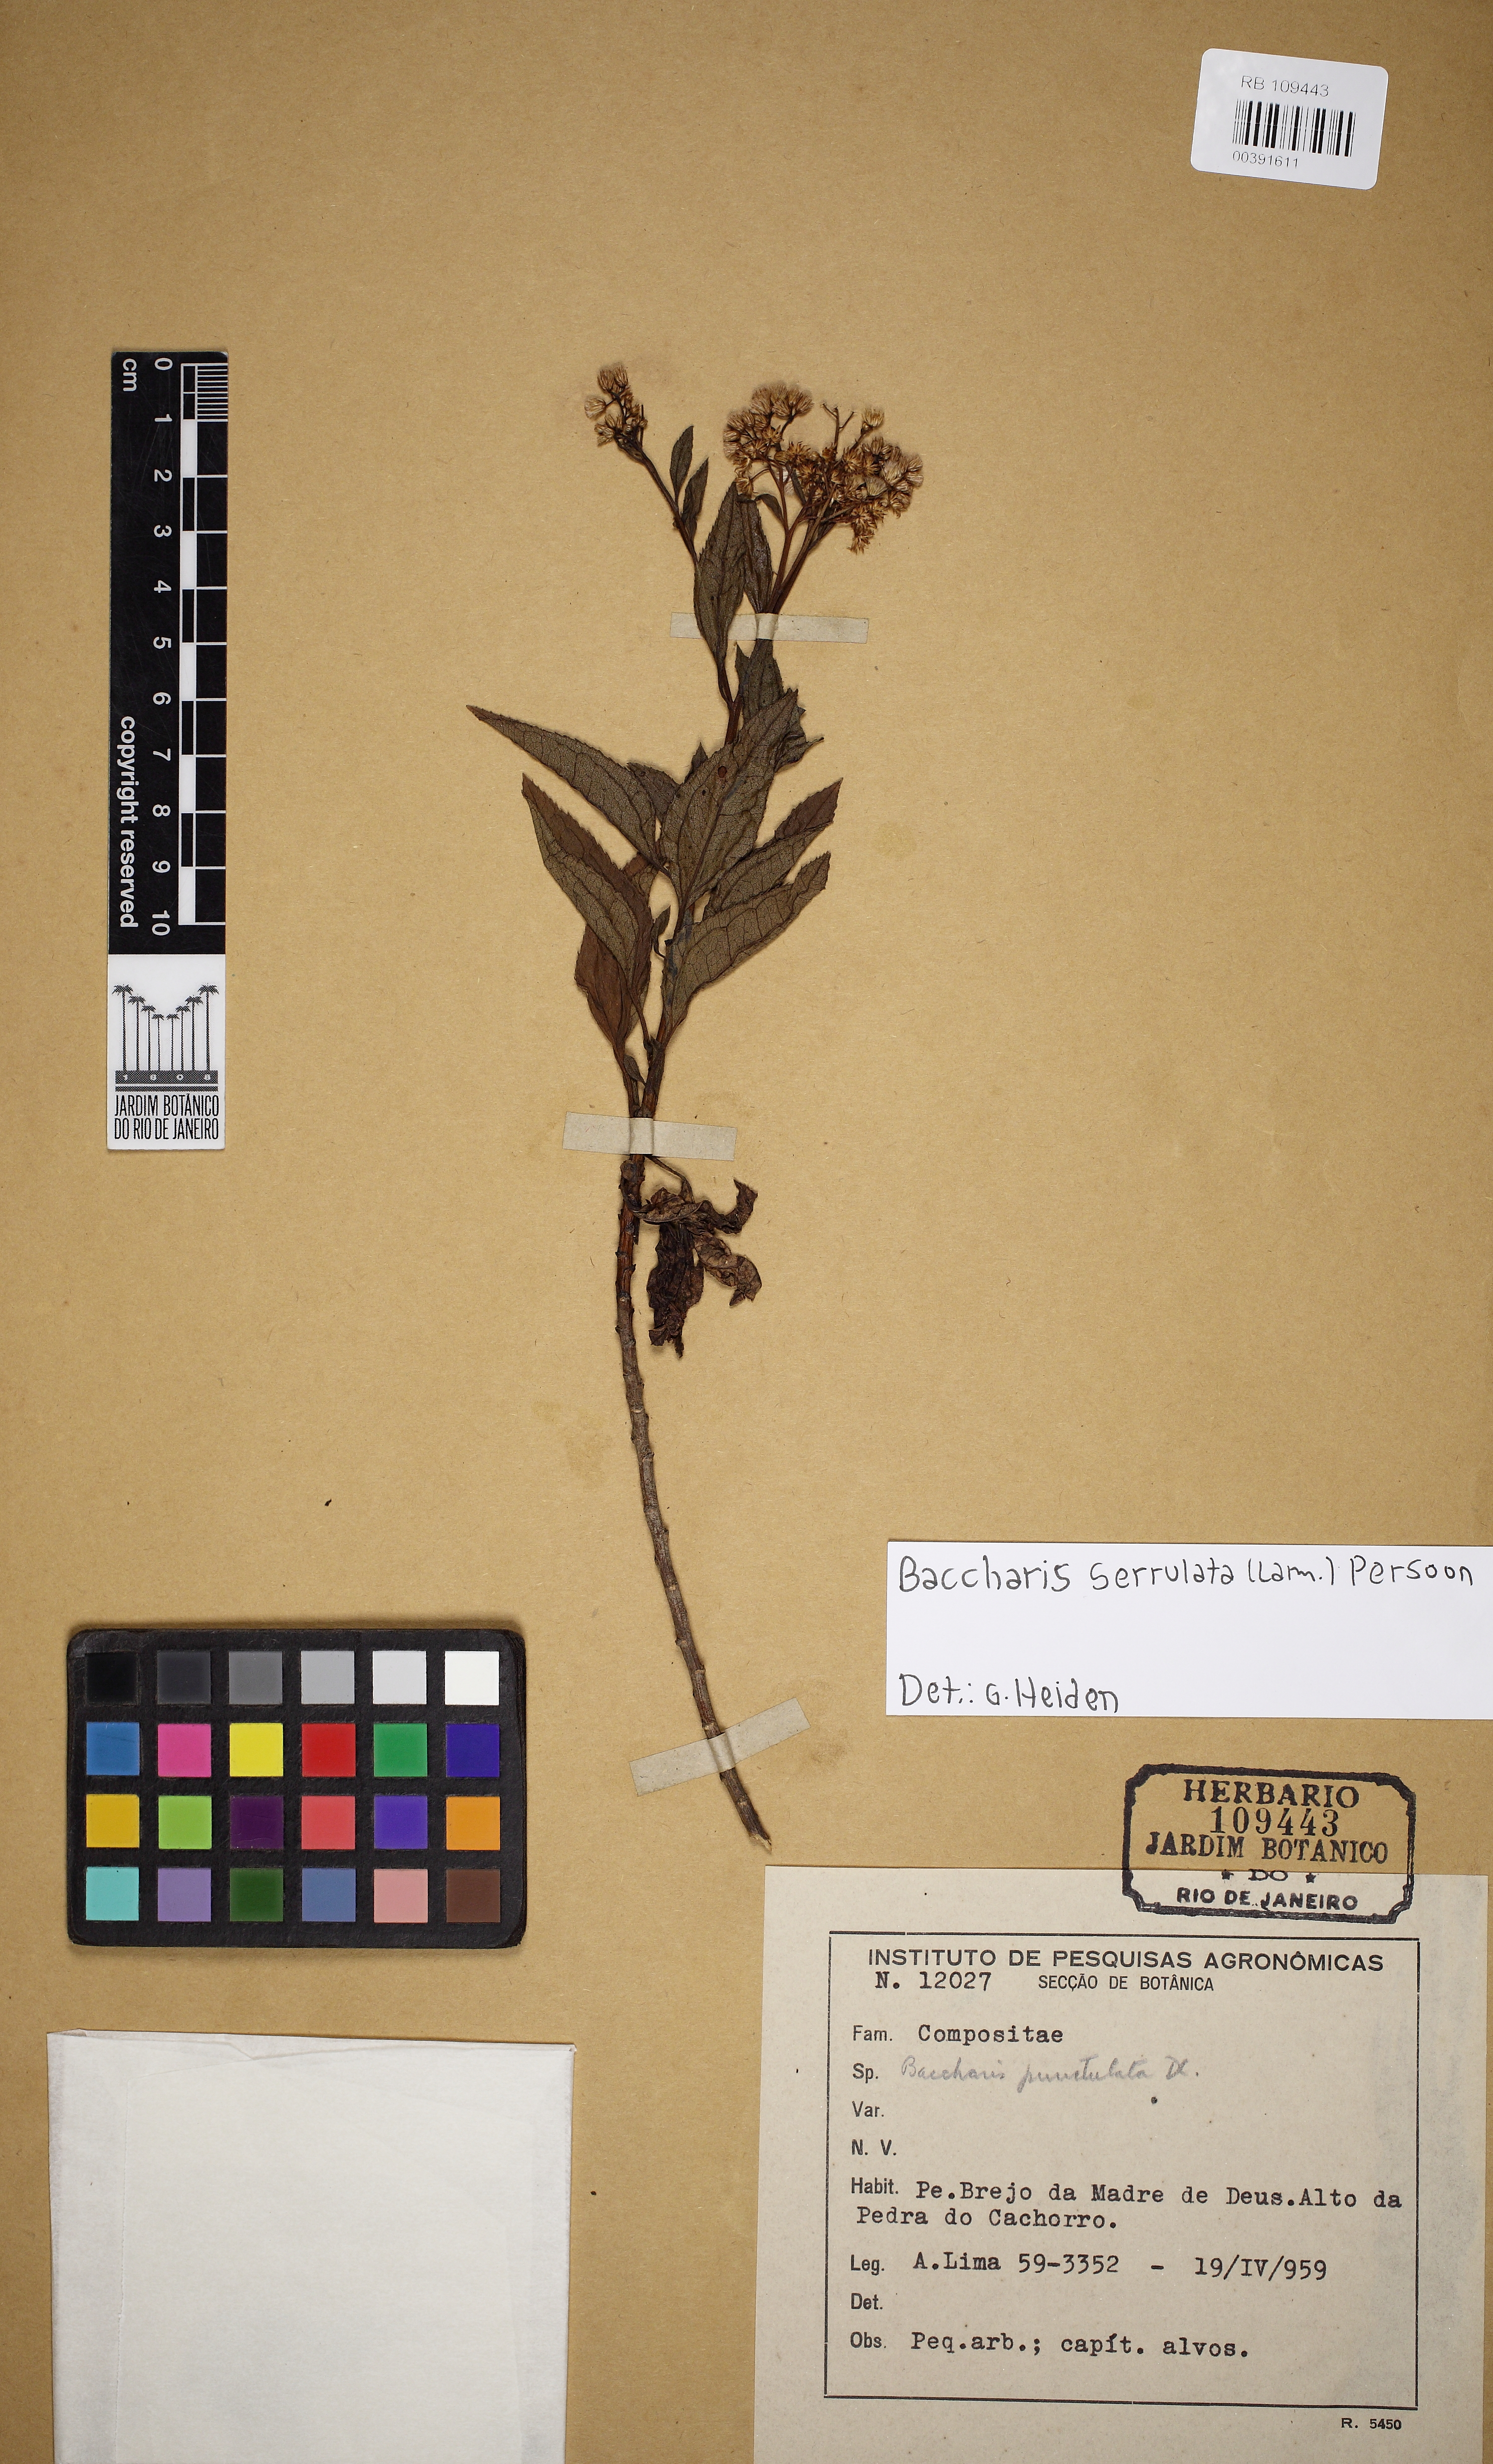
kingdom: Plantae
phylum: Tracheophyta
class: Magnoliopsida
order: Asterales
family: Asteraceae
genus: Baccharis
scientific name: Baccharis serrulata
